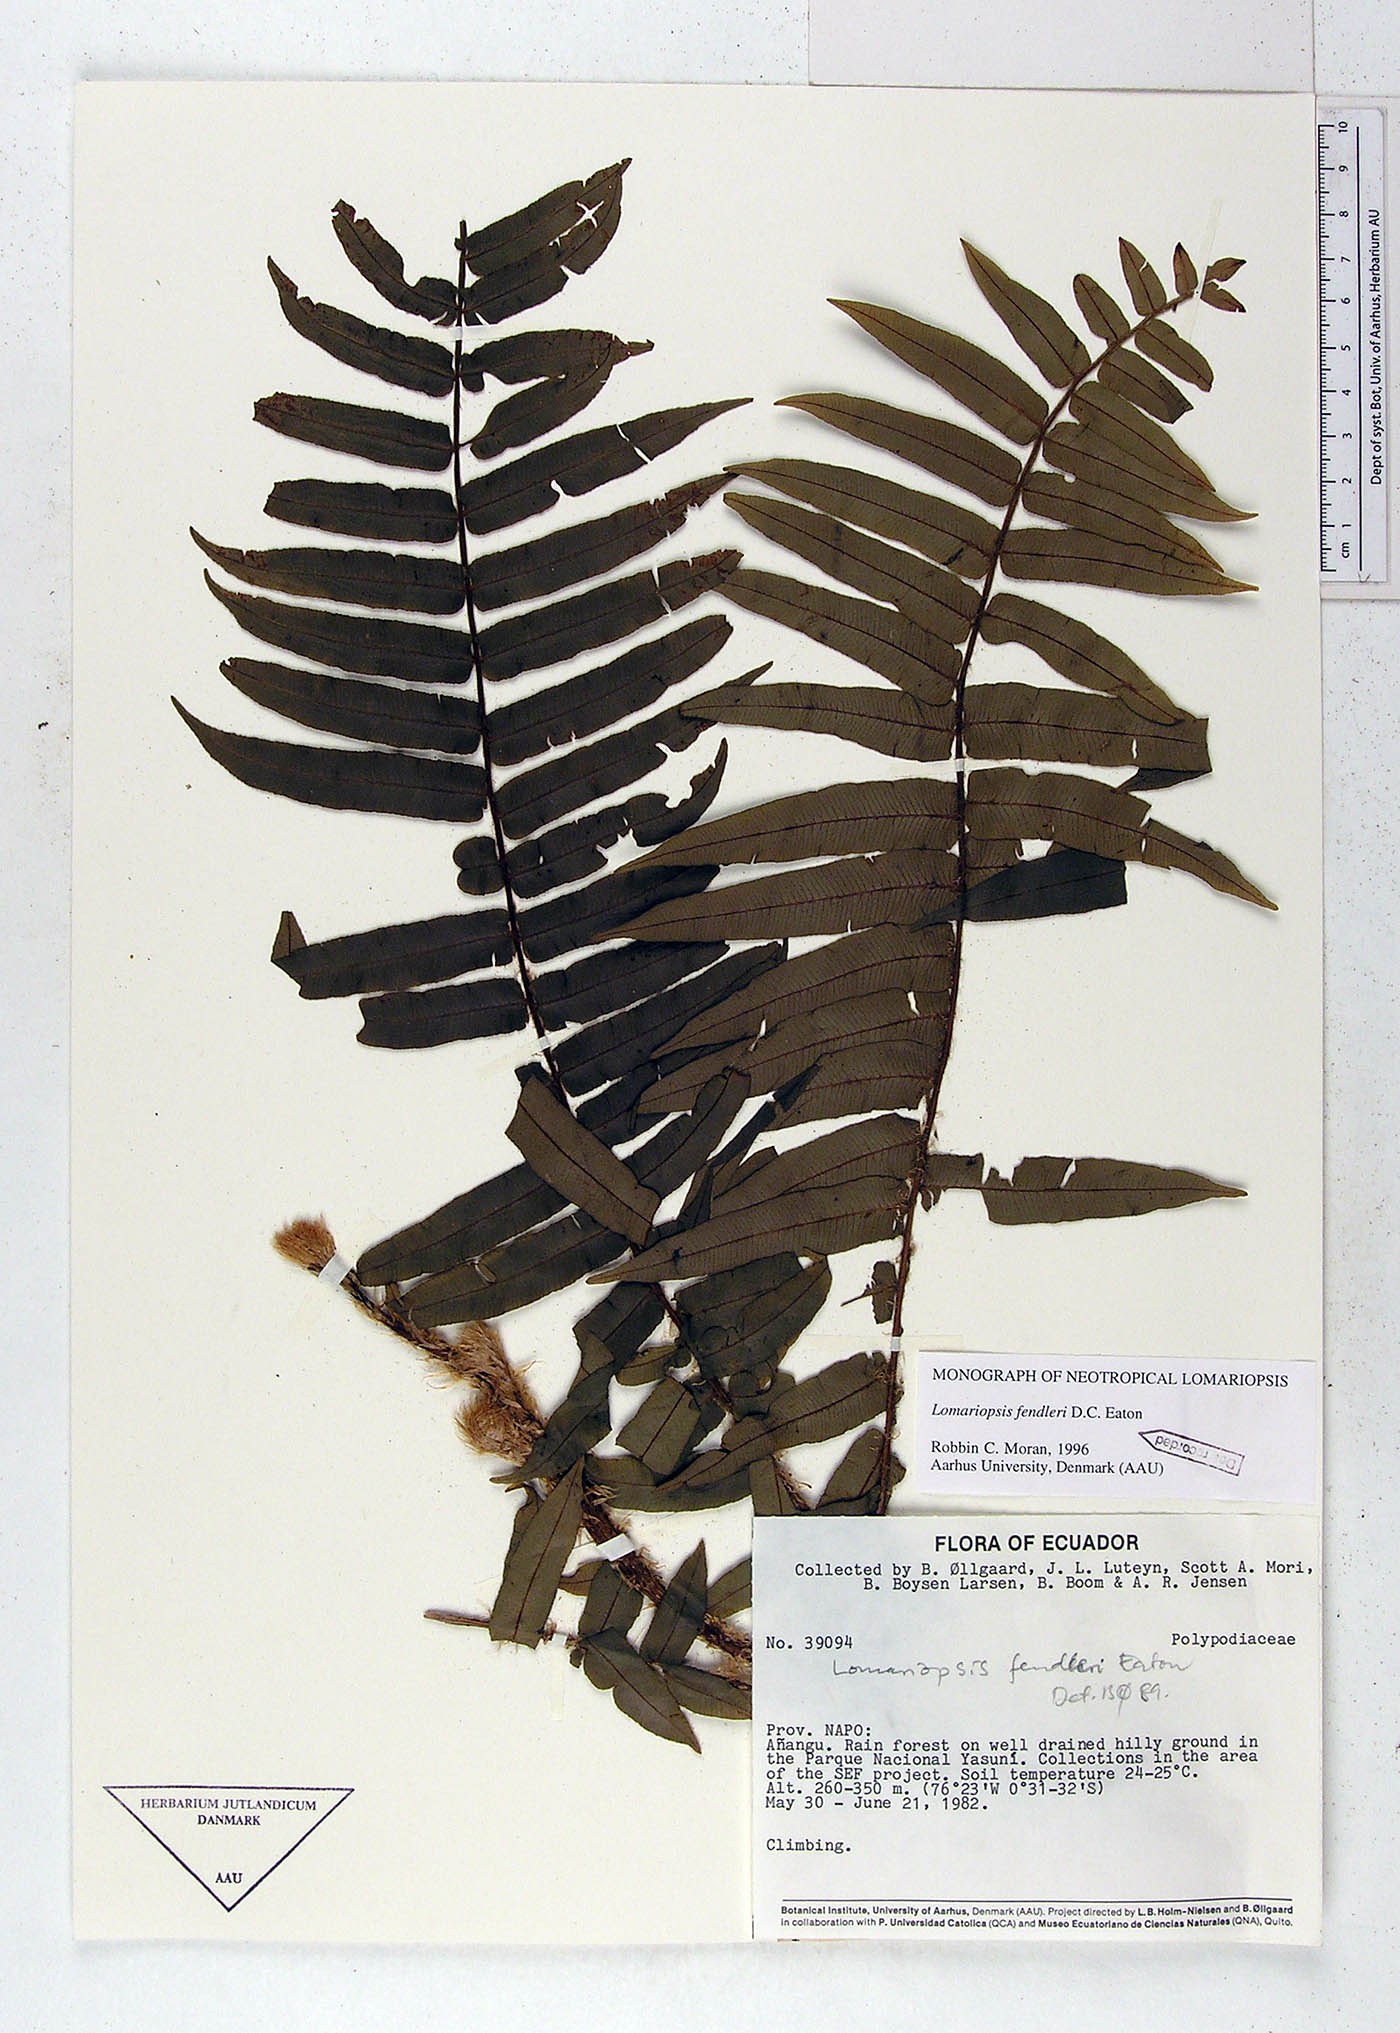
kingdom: Plantae
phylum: Tracheophyta
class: Polypodiopsida
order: Polypodiales
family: Lomariopsidaceae
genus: Lomariopsis
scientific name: Lomariopsis fendleri
